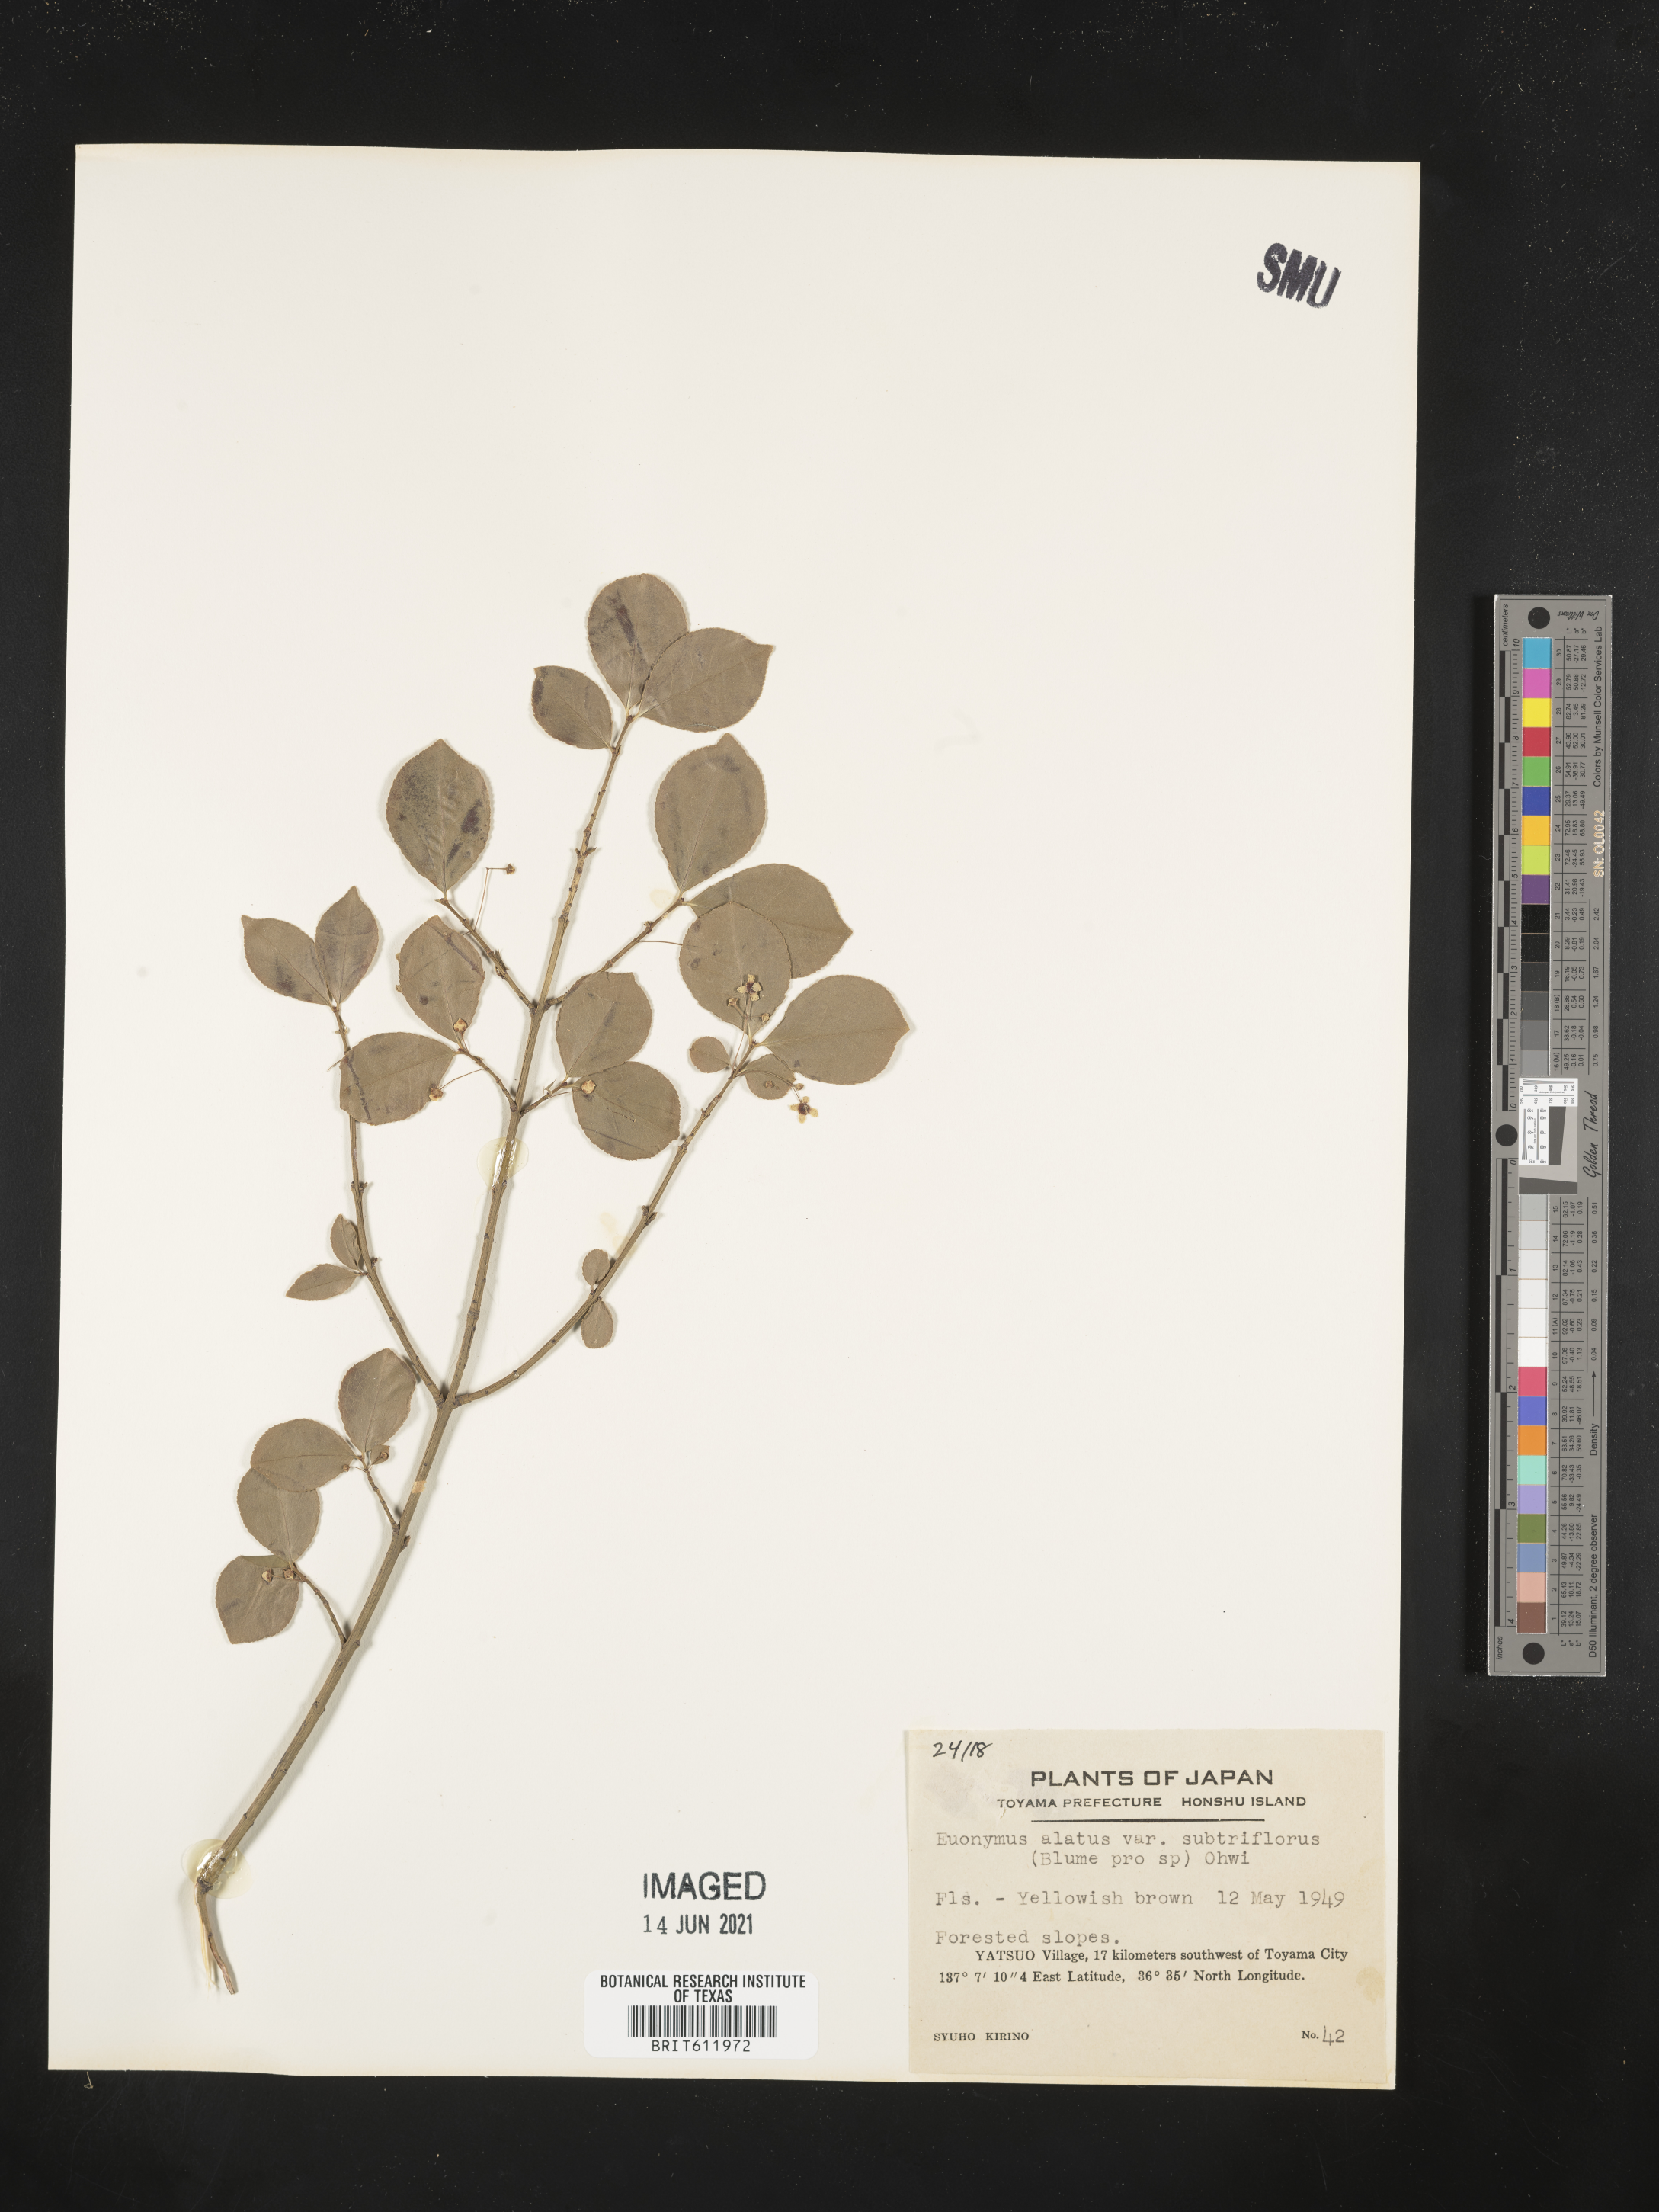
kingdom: Plantae
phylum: Tracheophyta
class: Magnoliopsida
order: Celastrales
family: Celastraceae
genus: Euonymus
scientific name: Euonymus alatus
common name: Winged euonymus
